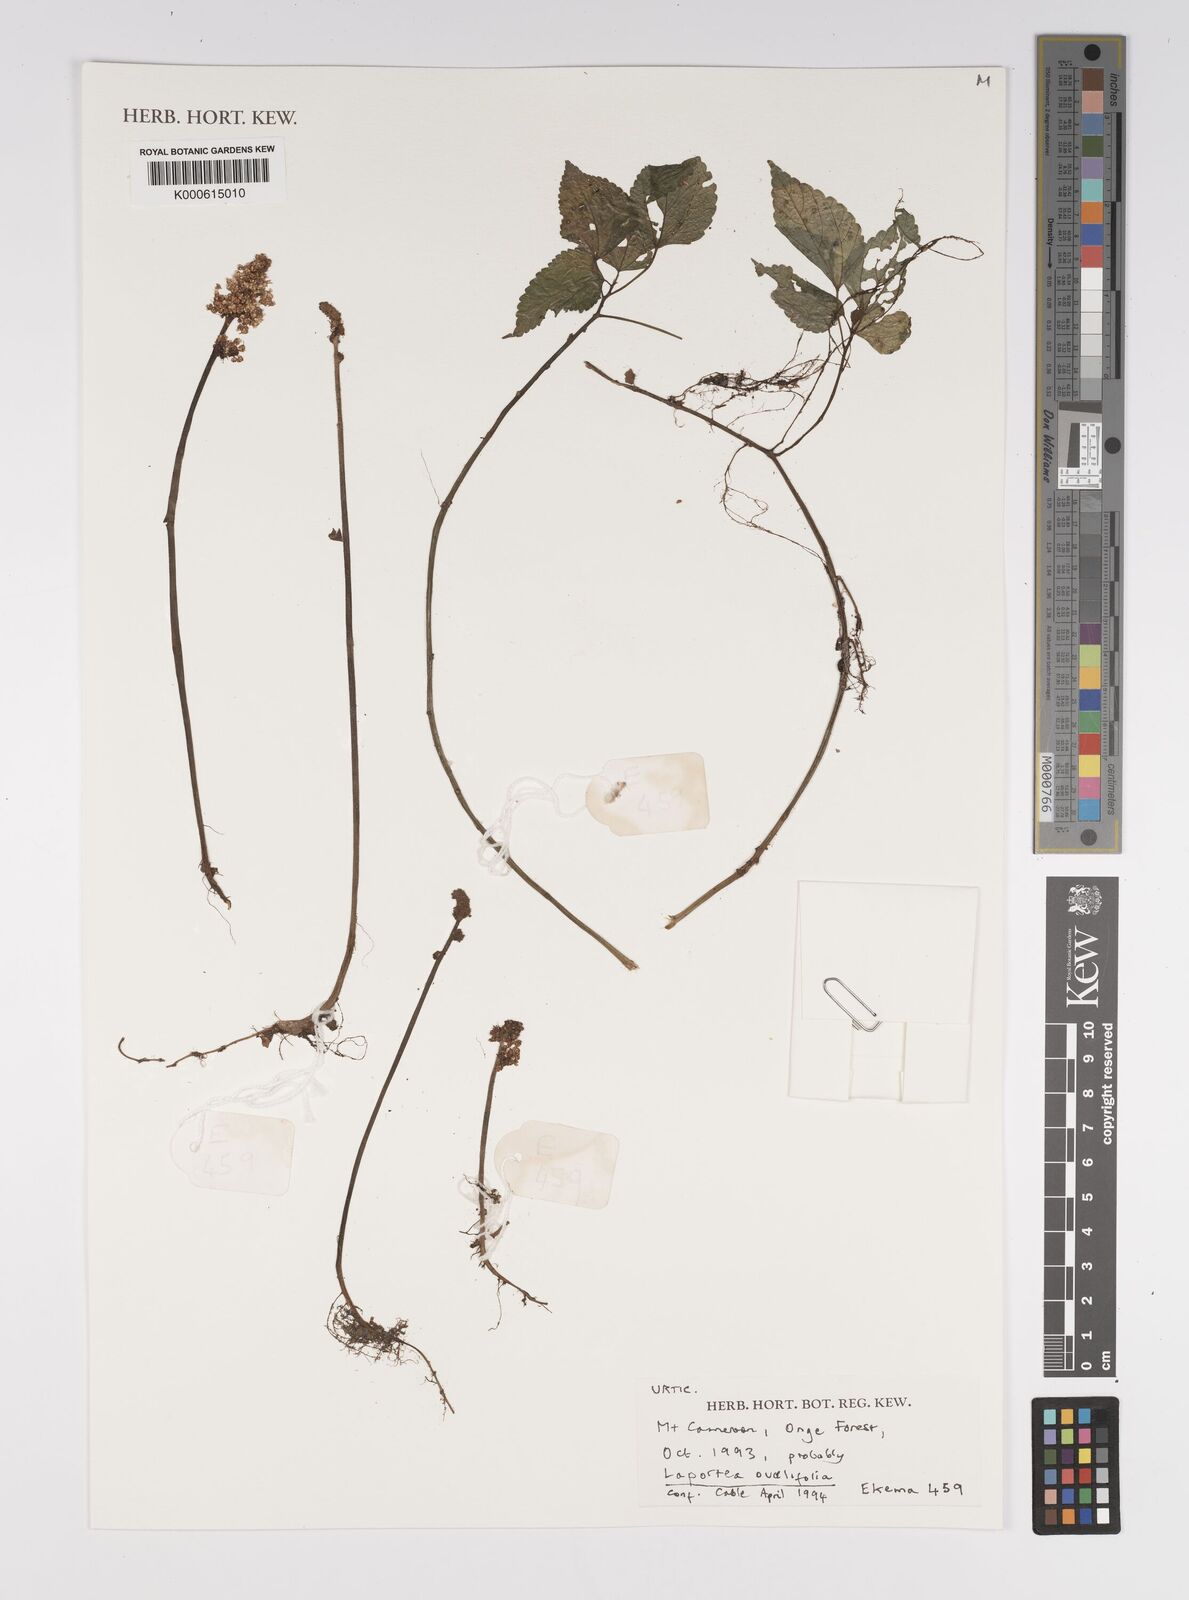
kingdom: Plantae
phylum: Tracheophyta
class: Magnoliopsida
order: Rosales
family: Urticaceae
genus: Laportea
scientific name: Laportea ovalifolia
